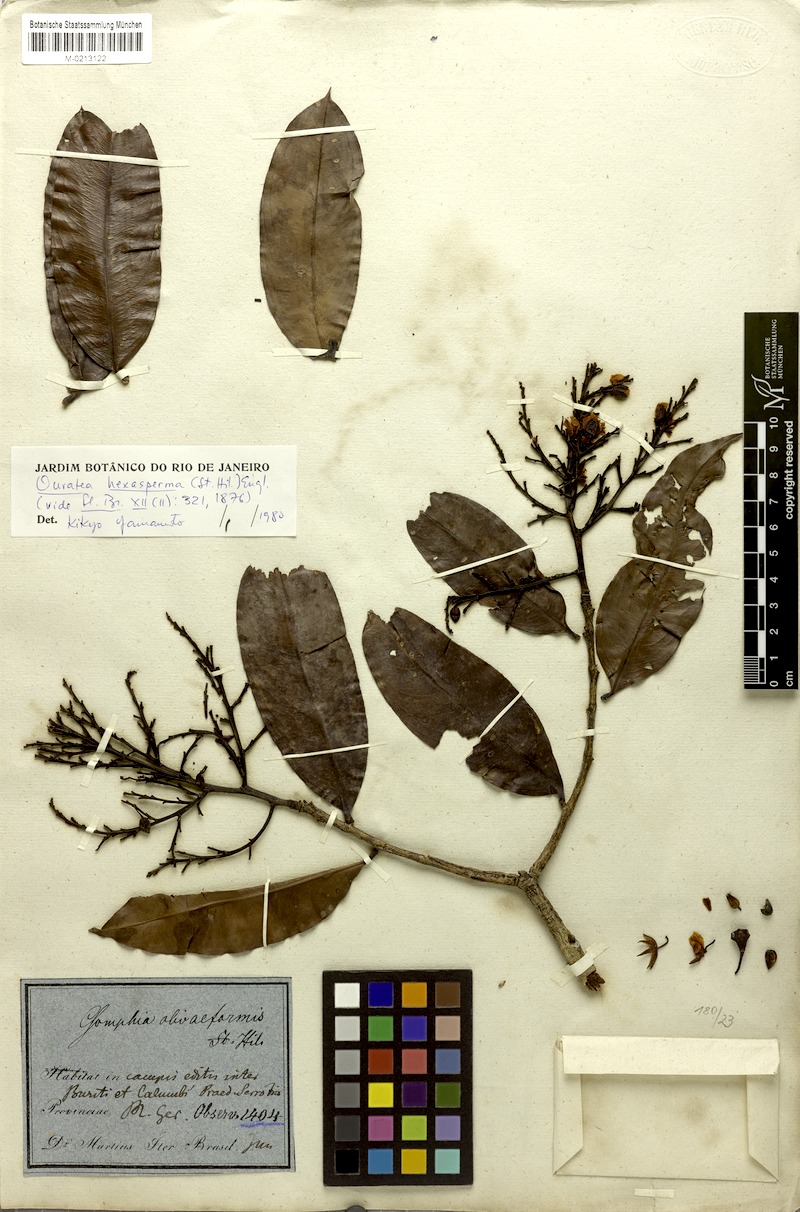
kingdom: Plantae
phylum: Tracheophyta
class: Magnoliopsida
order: Malpighiales
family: Ochnaceae
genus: Ouratea
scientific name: Ouratea hexasperma
